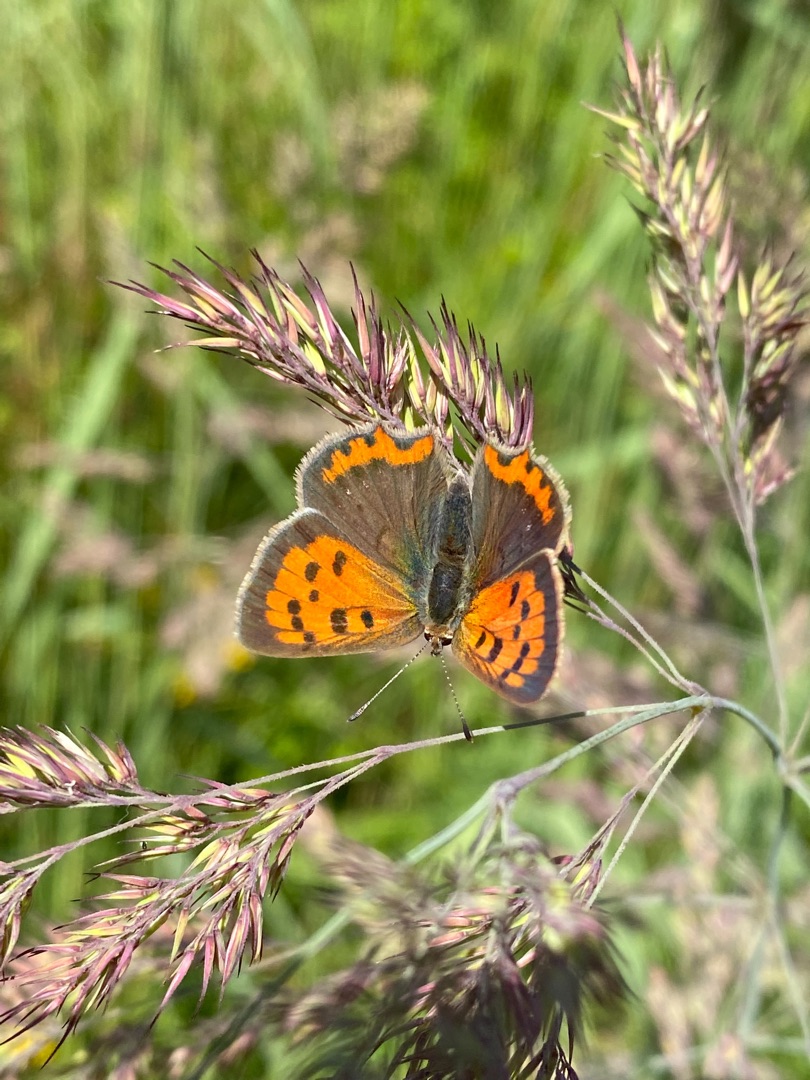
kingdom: Animalia
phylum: Arthropoda
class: Insecta
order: Lepidoptera
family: Lycaenidae
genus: Lycaena
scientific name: Lycaena phlaeas
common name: Lille ildfugl
